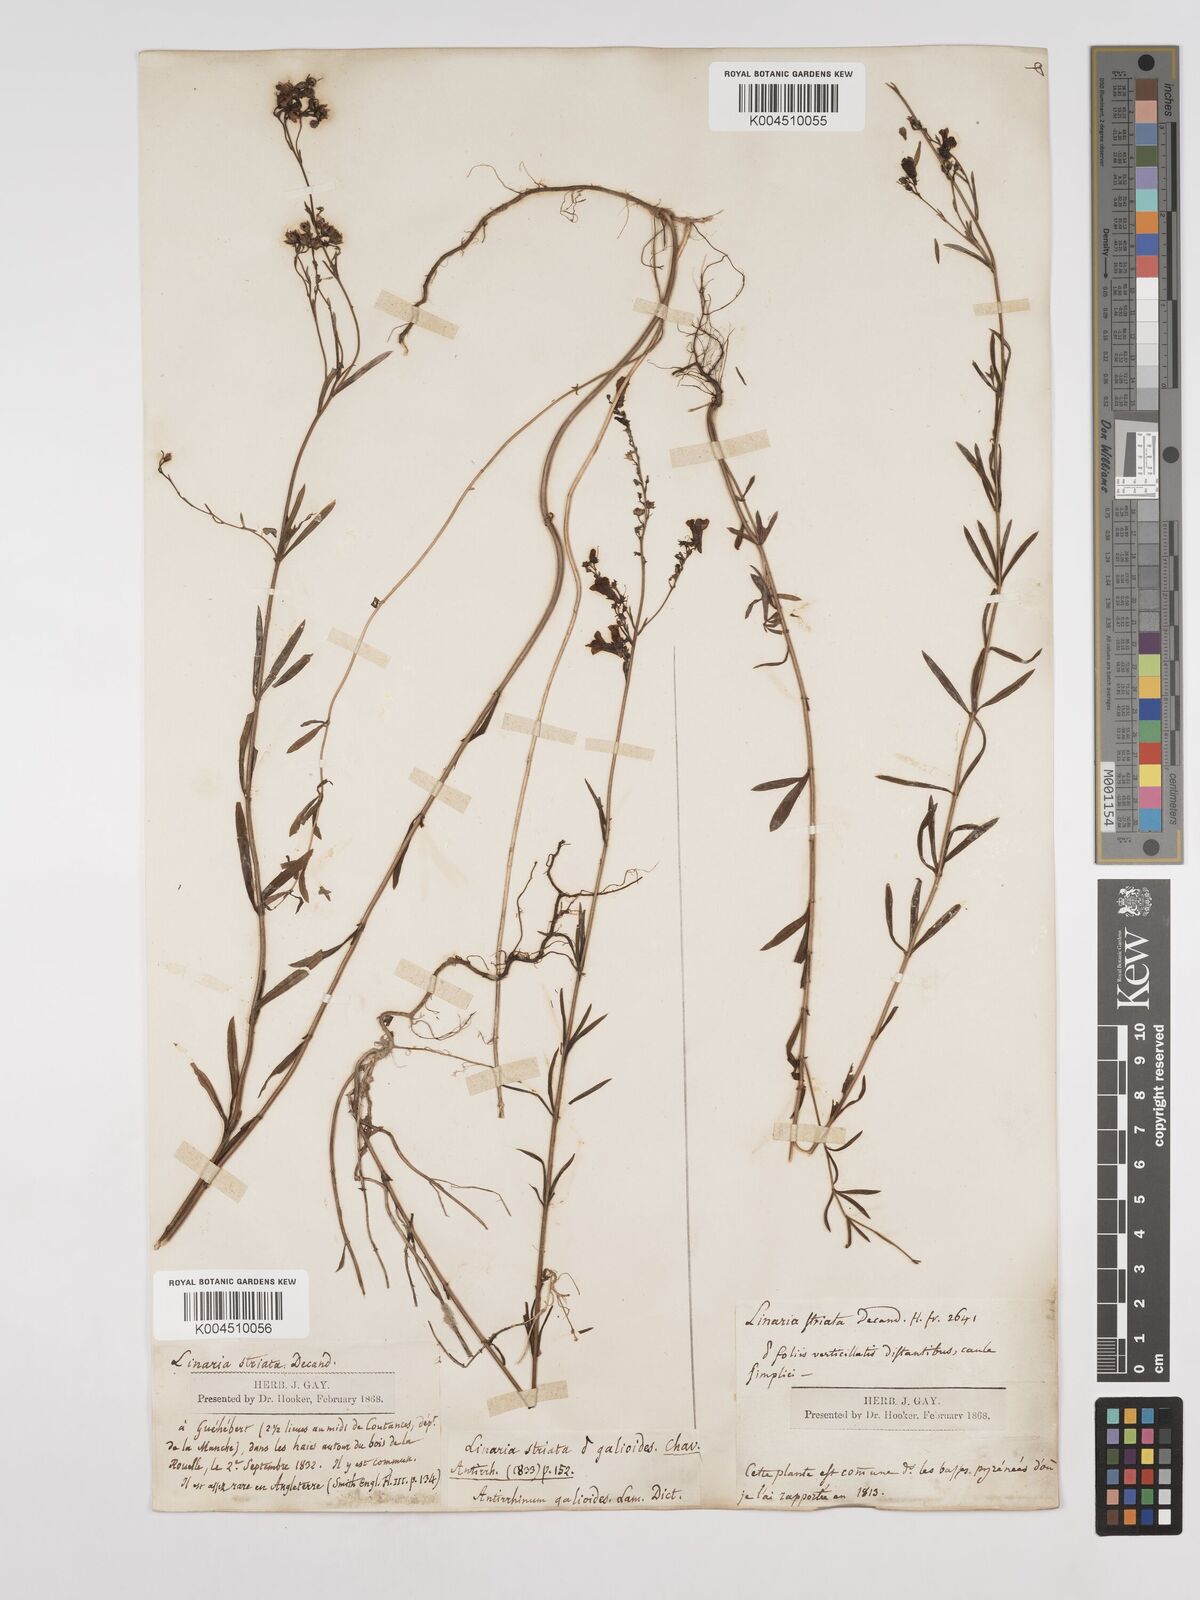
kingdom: Plantae
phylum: Tracheophyta
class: Magnoliopsida
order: Lamiales
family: Plantaginaceae
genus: Linaria
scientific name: Linaria repens
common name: Pale toadflax
